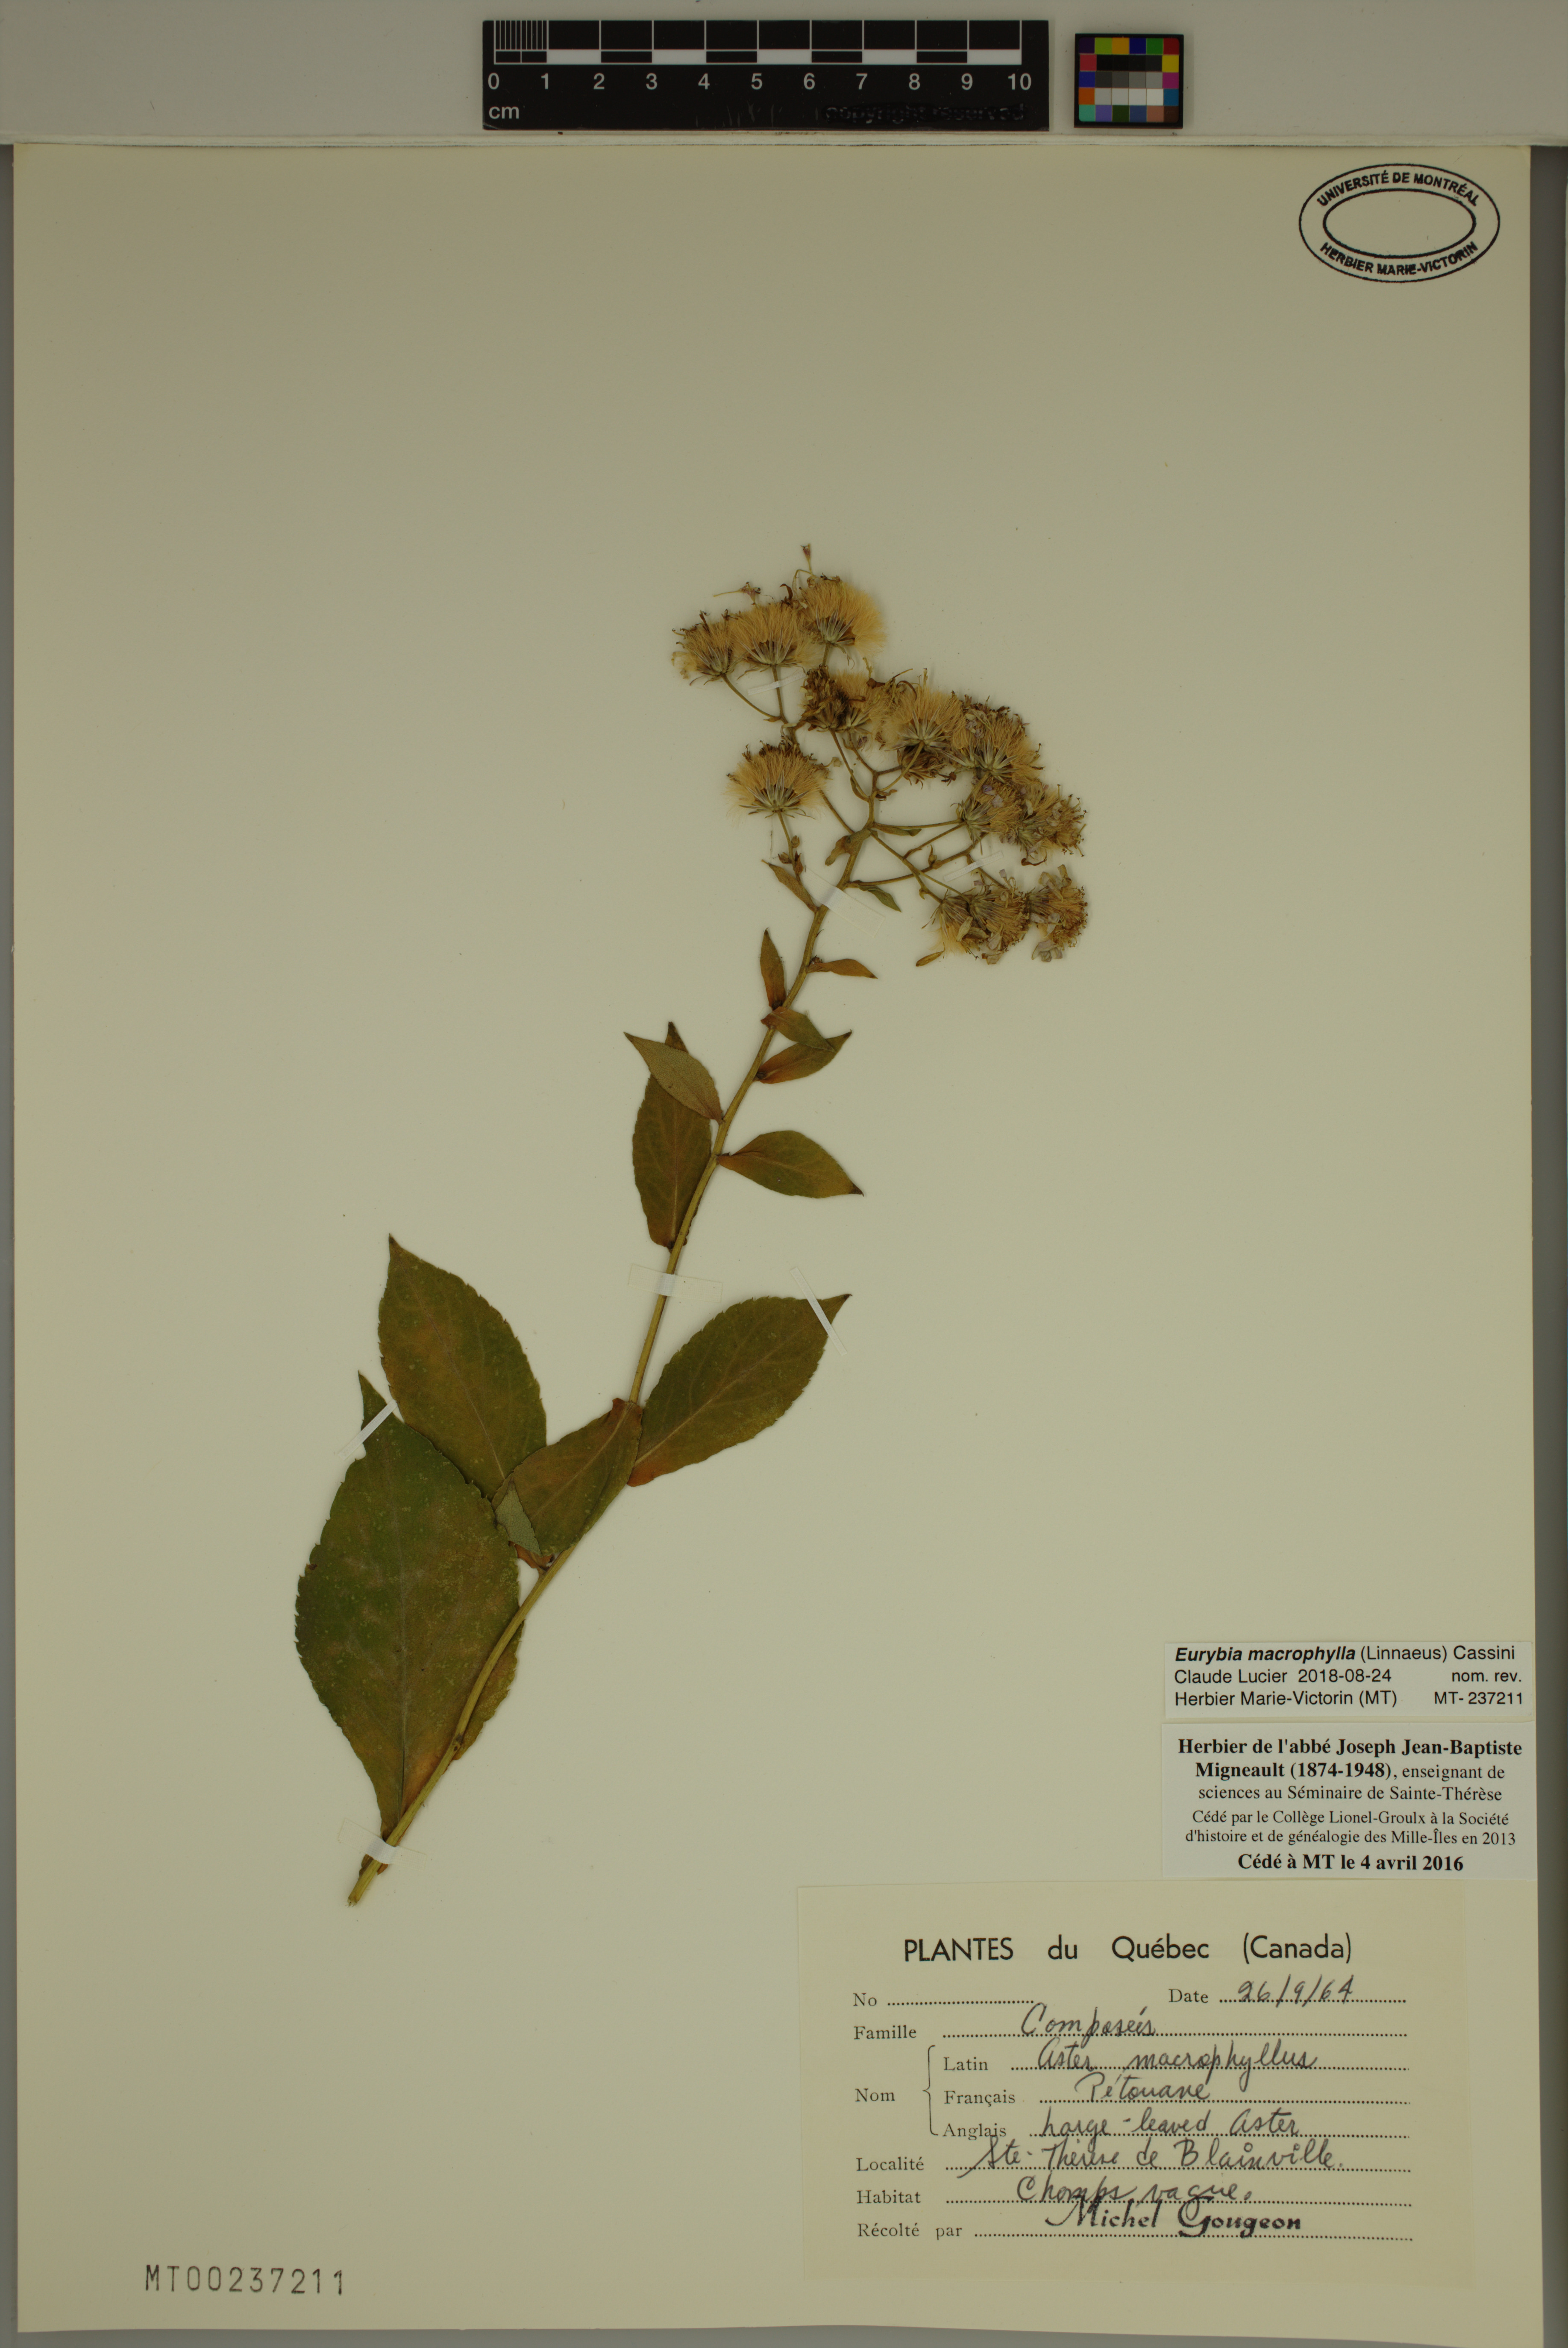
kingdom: Plantae
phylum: Tracheophyta
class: Magnoliopsida
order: Asterales
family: Asteraceae
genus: Eurybia
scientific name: Eurybia macrophylla
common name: Big-leaved aster
